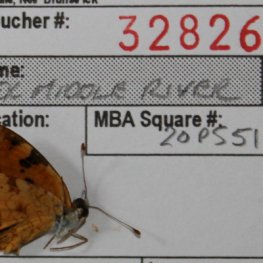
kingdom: Animalia
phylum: Arthropoda
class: Insecta
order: Lepidoptera
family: Nymphalidae
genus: Phyciodes
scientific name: Phyciodes tharos
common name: Northern Crescent
